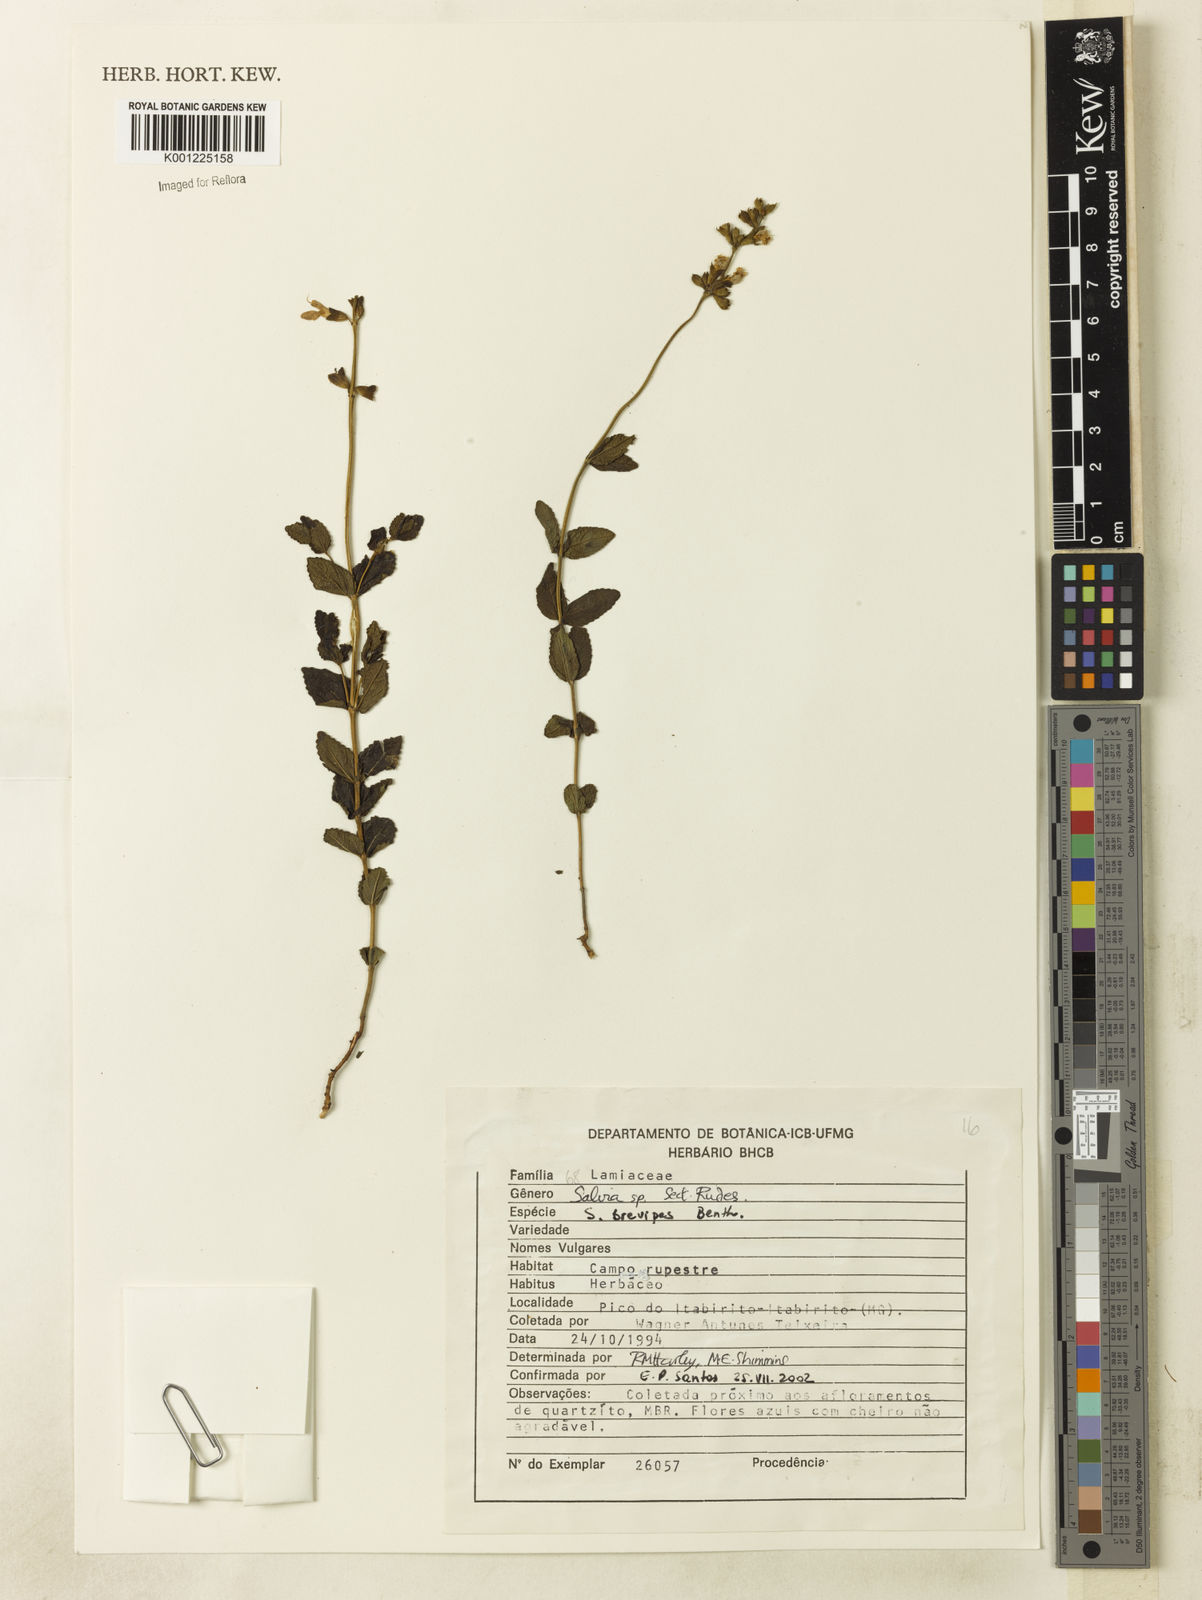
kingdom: Plantae
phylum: Tracheophyta
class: Magnoliopsida
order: Lamiales
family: Lamiaceae
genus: Salvia
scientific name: Salvia brevipes
